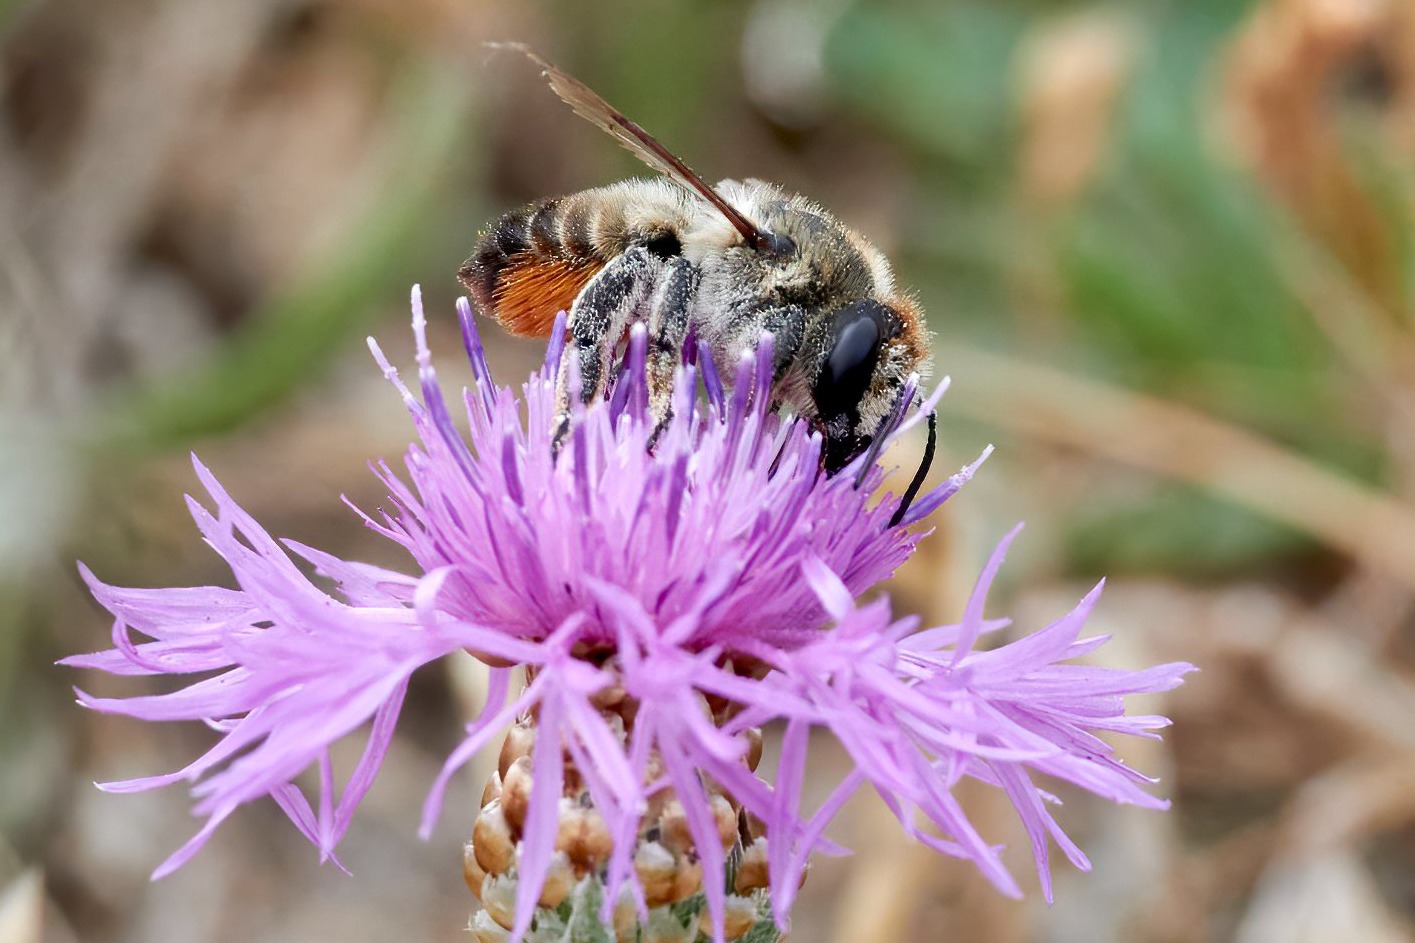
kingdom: Plantae
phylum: Tracheophyta
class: Magnoliopsida
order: Asterales
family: Asteraceae
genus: Centaurea
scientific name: Centaurea jacea
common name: Almindelig knopurt
